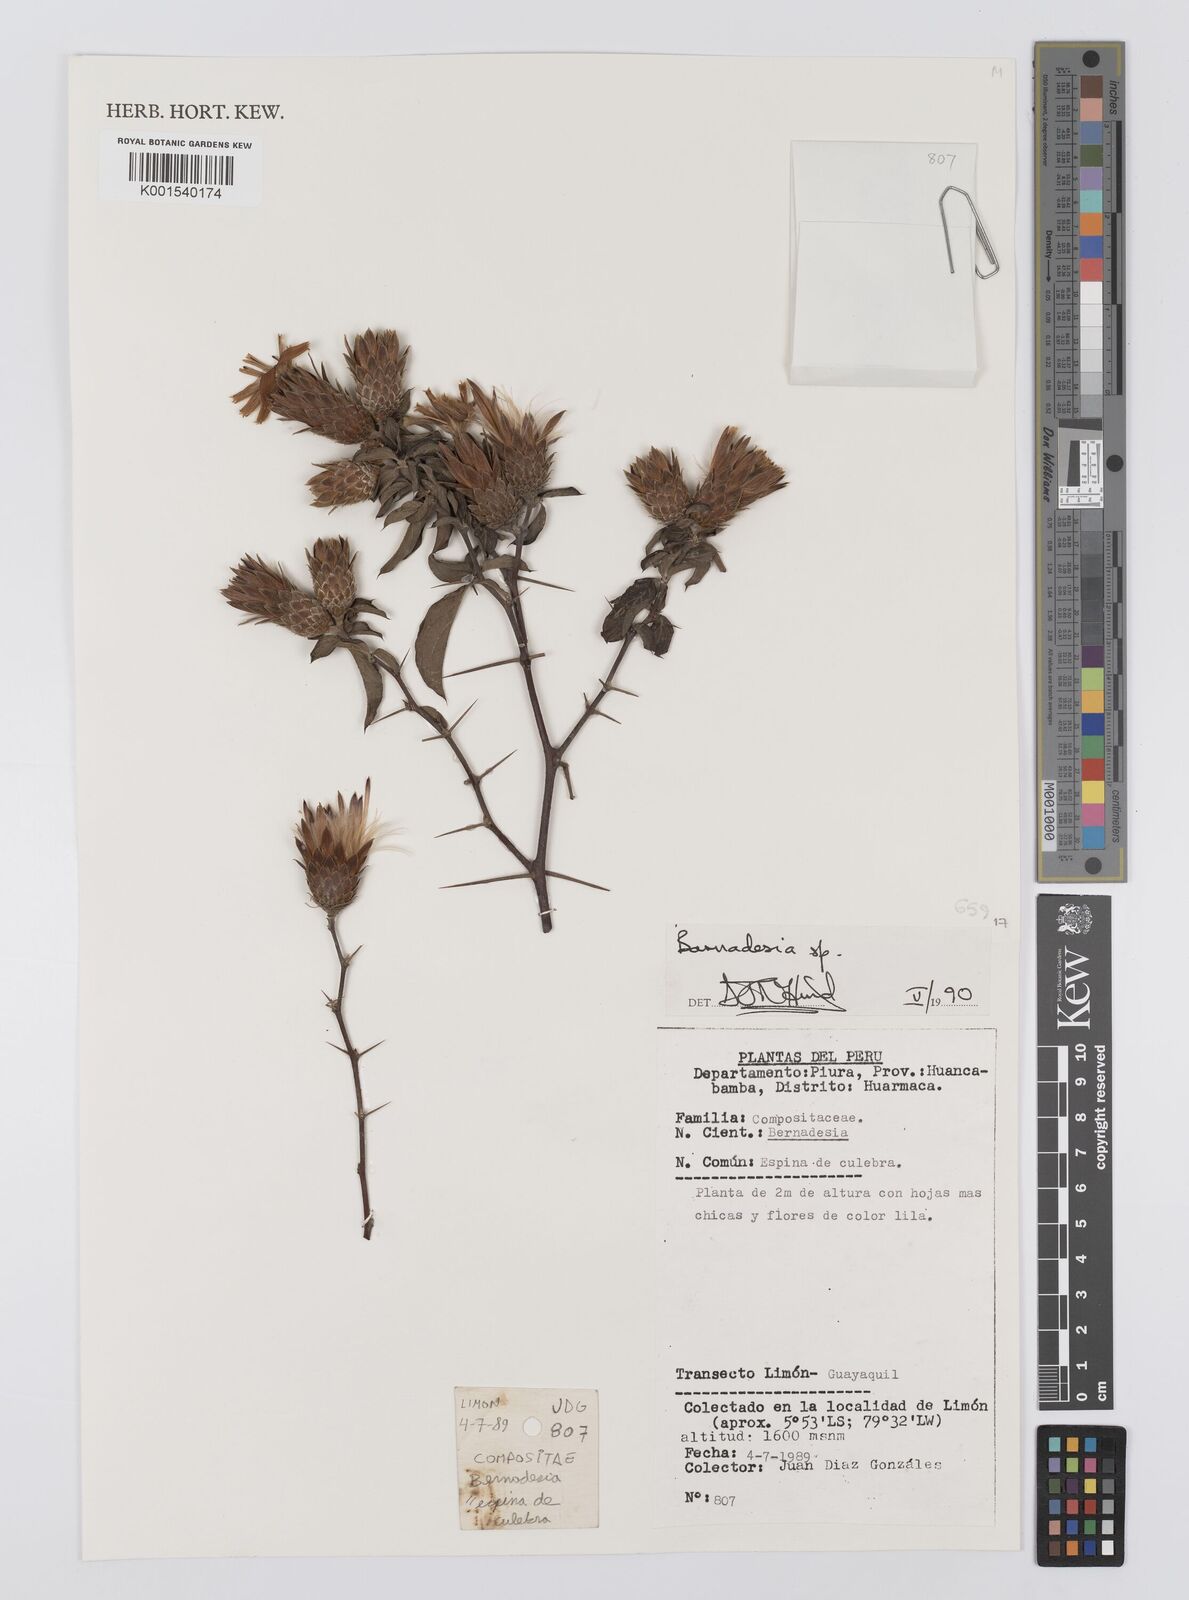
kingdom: Plantae
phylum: Tracheophyta
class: Magnoliopsida
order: Asterales
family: Asteraceae
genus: Barnadesia
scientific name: Barnadesia
